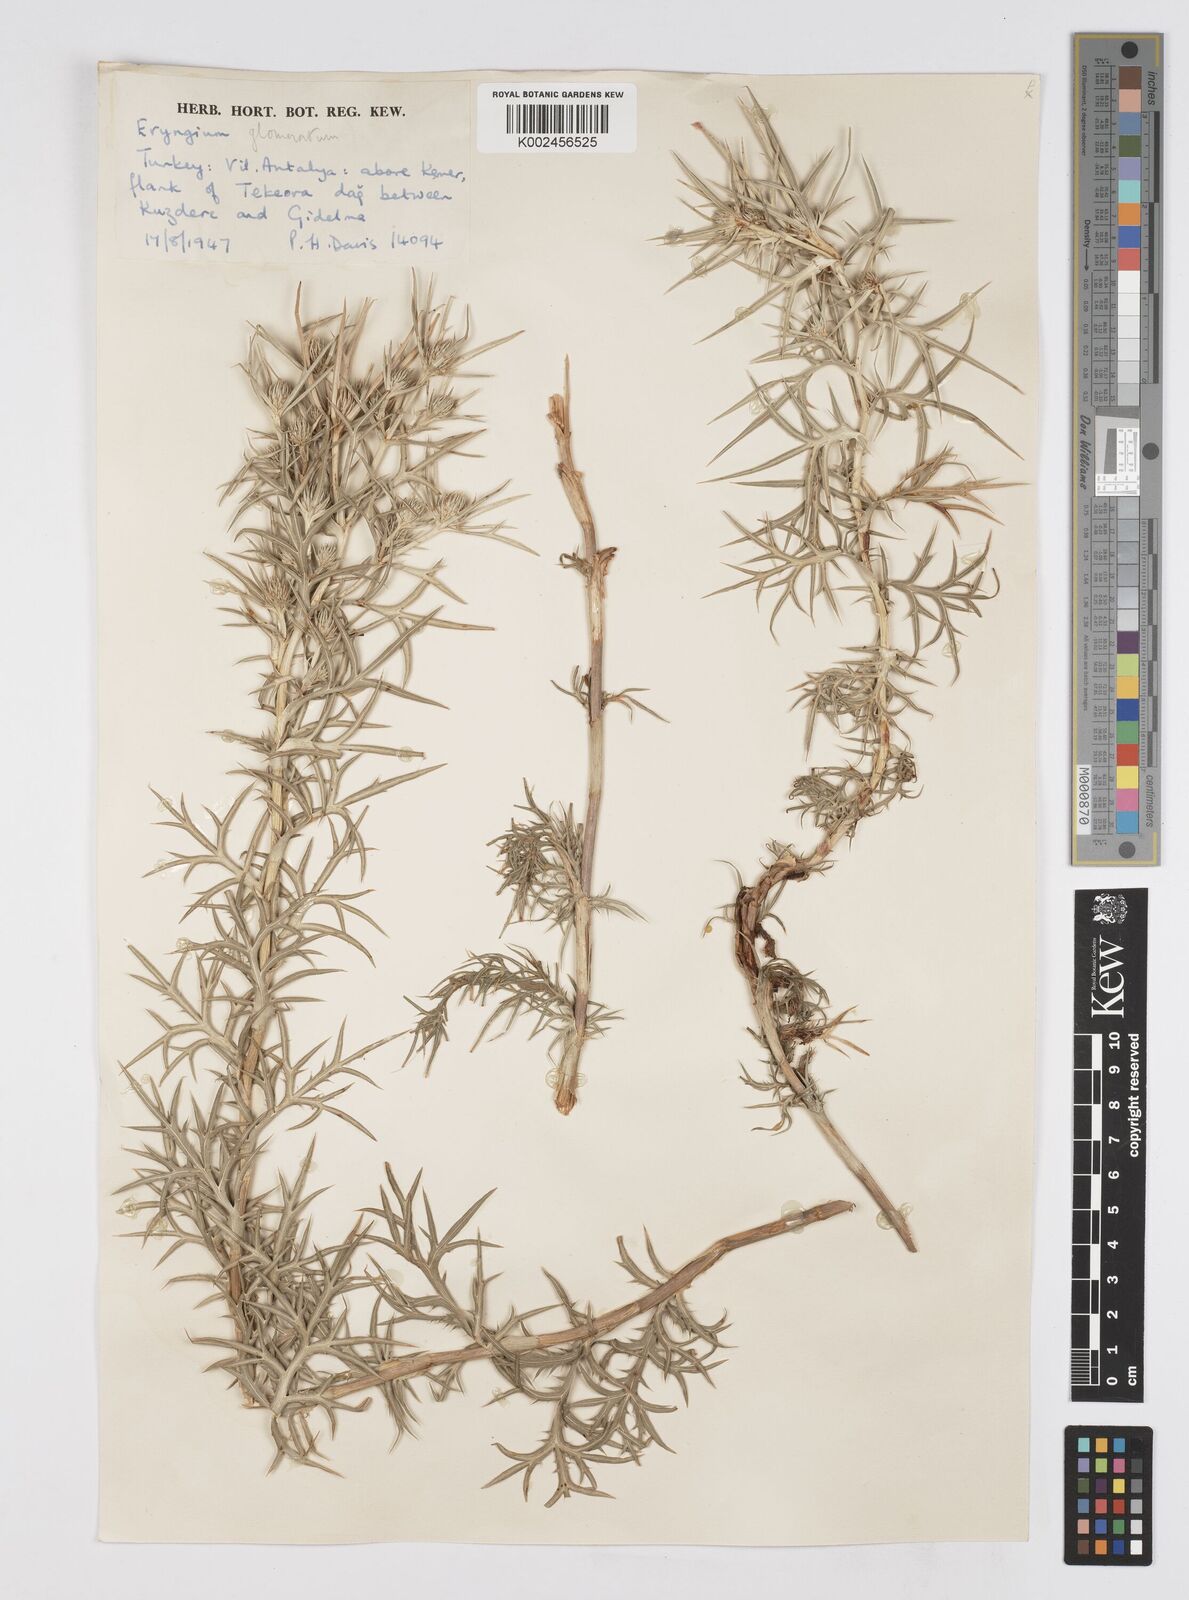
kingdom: Plantae
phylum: Tracheophyta
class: Magnoliopsida
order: Apiales
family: Apiaceae
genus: Eryngium
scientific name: Eryngium glomeratum
